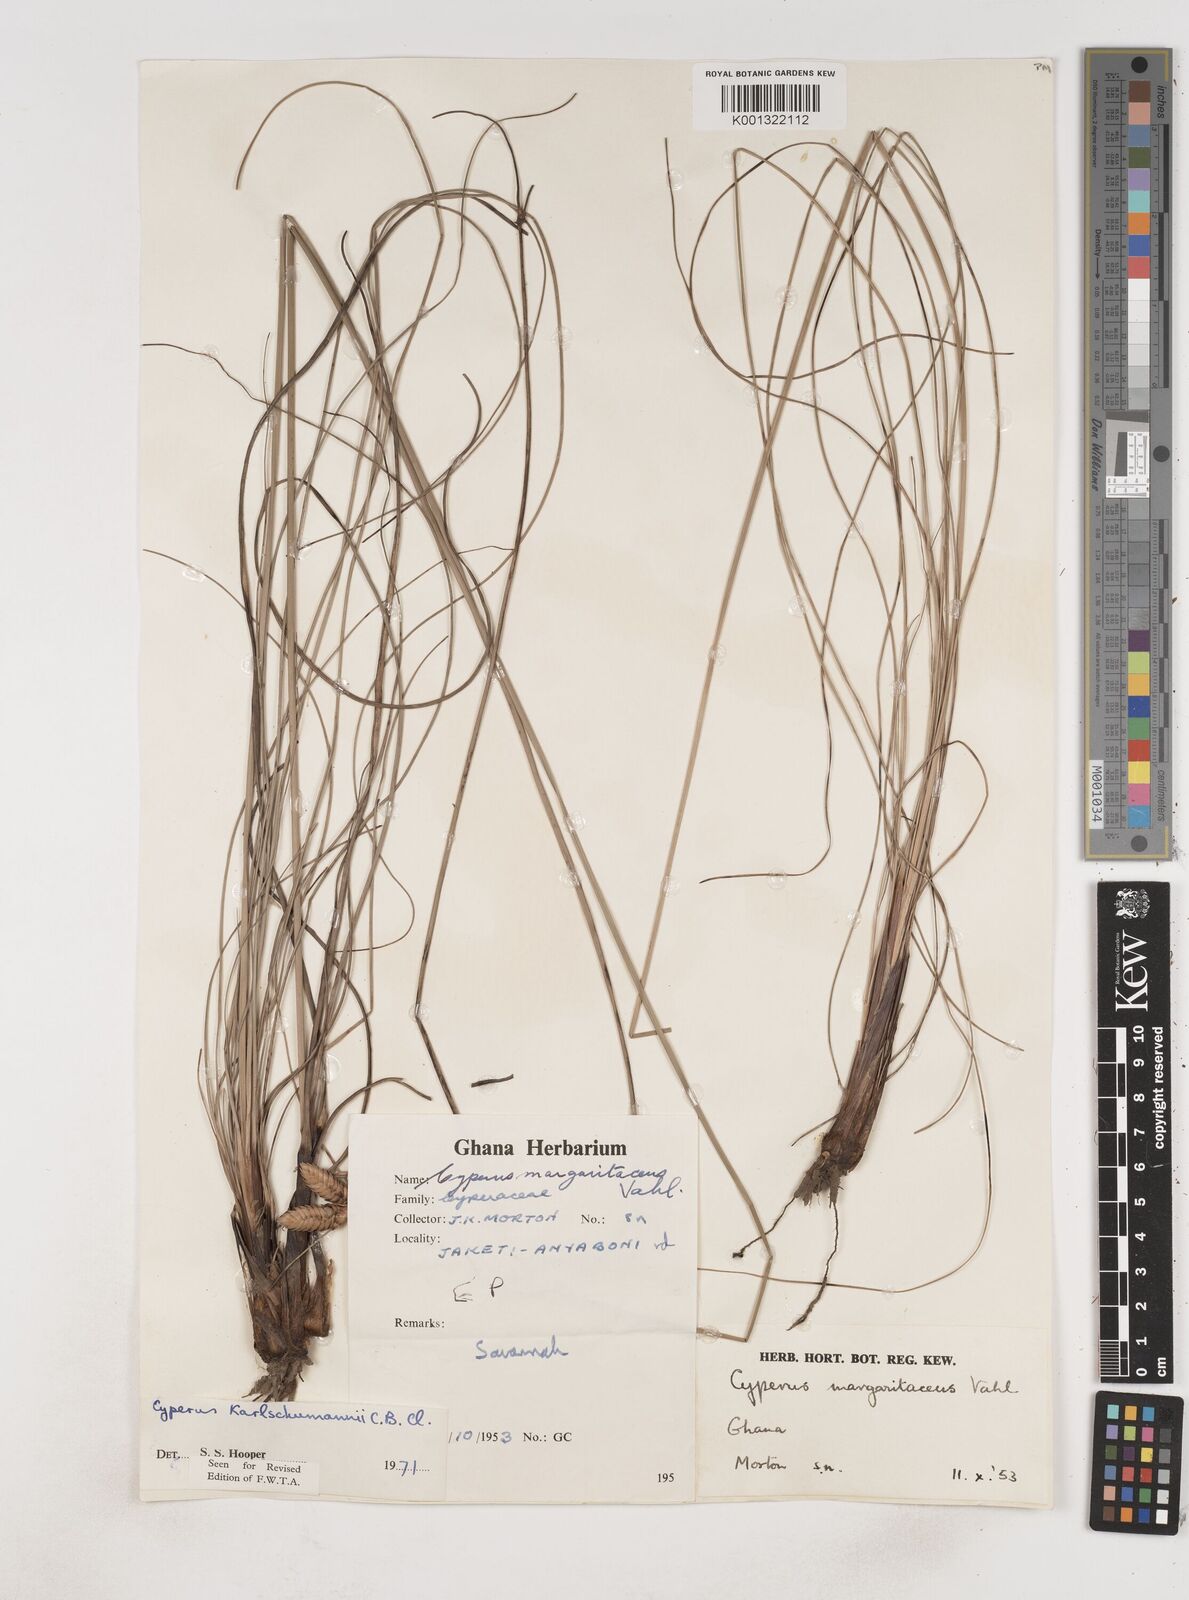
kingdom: Plantae
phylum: Tracheophyta
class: Liliopsida
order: Poales
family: Cyperaceae
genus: Cyperus
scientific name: Cyperus karlschumannii
